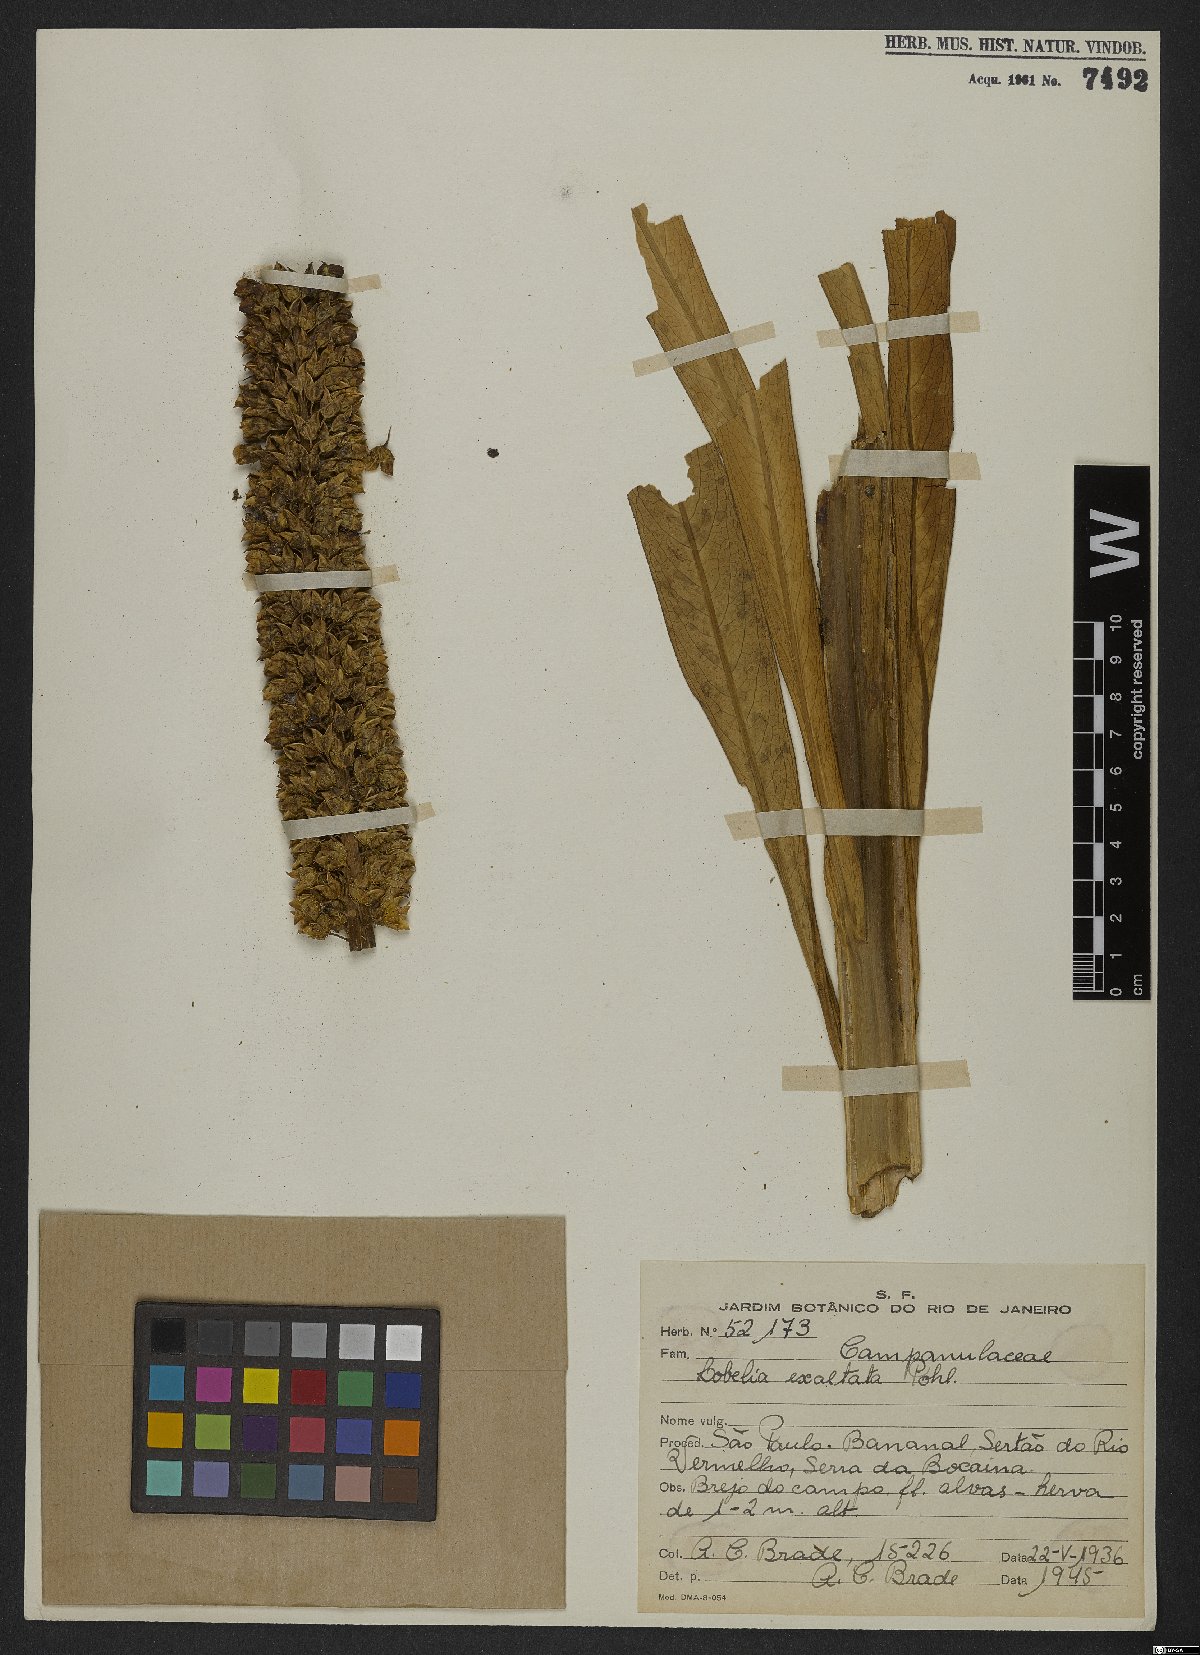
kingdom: Plantae
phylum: Tracheophyta
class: Magnoliopsida
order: Asterales
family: Campanulaceae
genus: Lobelia
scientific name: Lobelia exaltata
